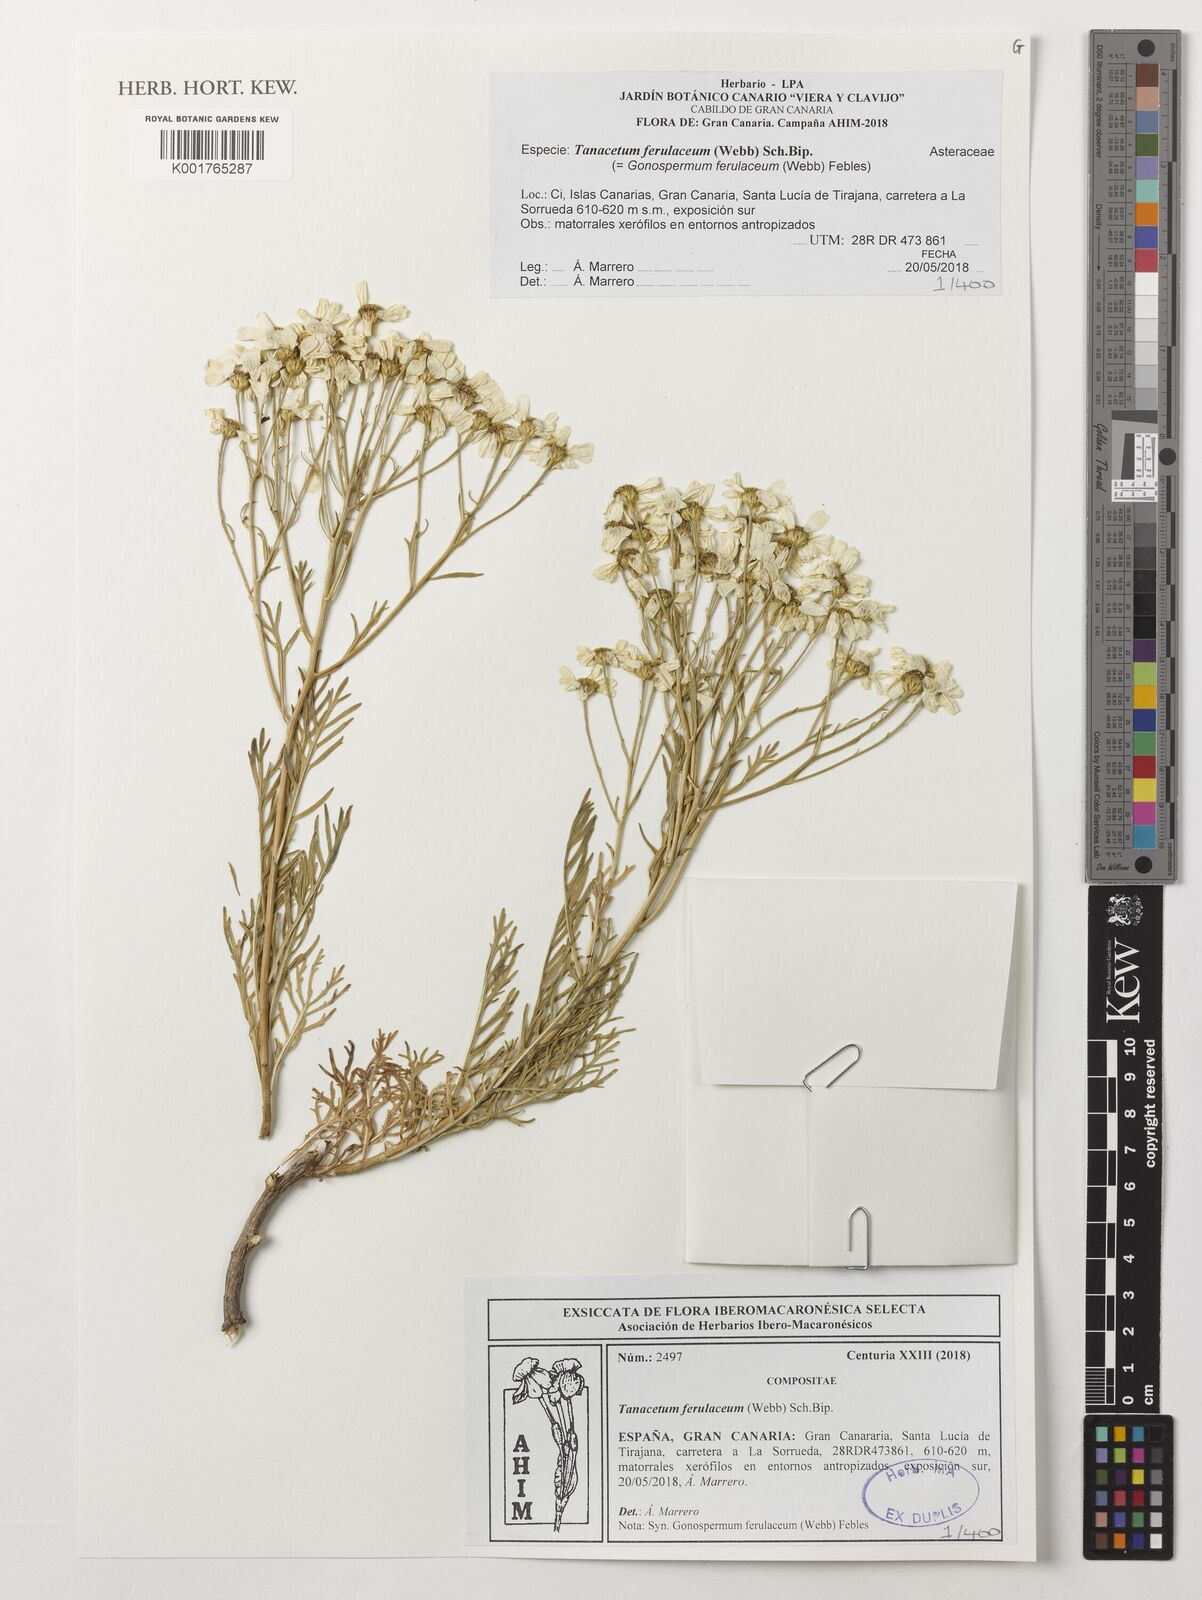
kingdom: Plantae
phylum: Tracheophyta
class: Magnoliopsida
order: Asterales
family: Asteraceae
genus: Gonospermum
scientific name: Gonospermum ferulaceum
